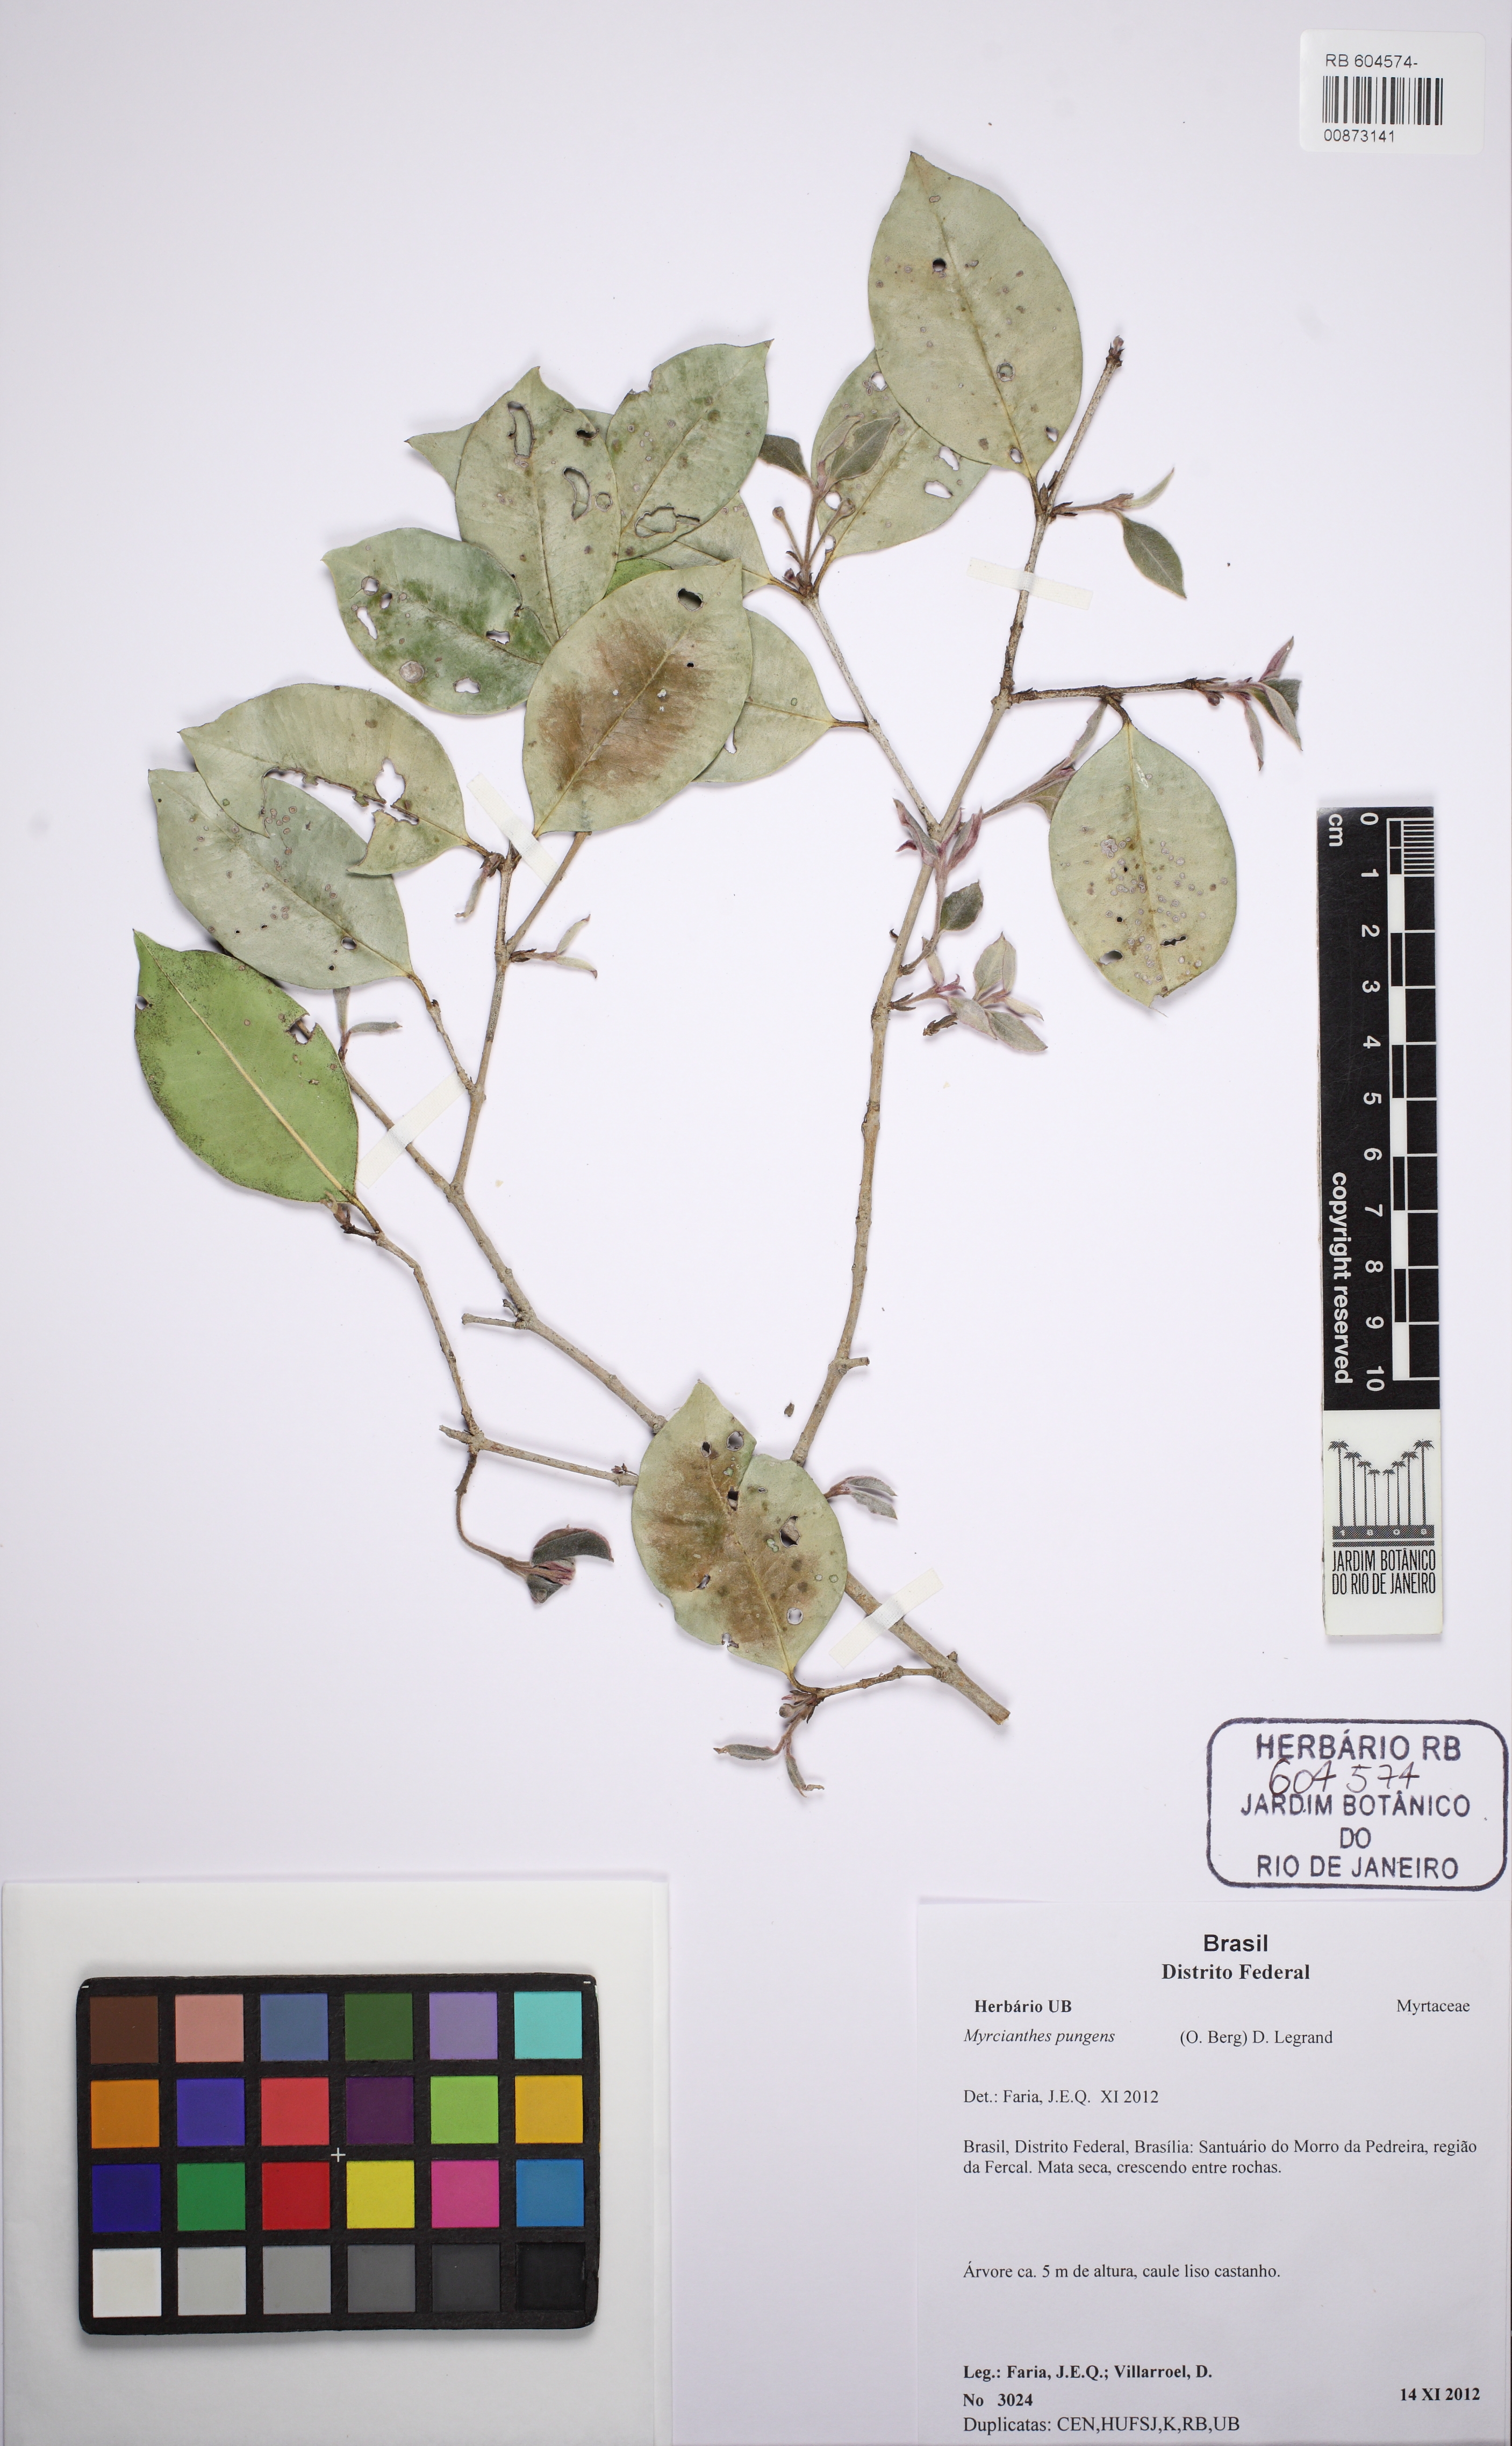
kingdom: Plantae
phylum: Tracheophyta
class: Magnoliopsida
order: Myrtales
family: Myrtaceae
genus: Myrcianthes
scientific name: Myrcianthes pungens
